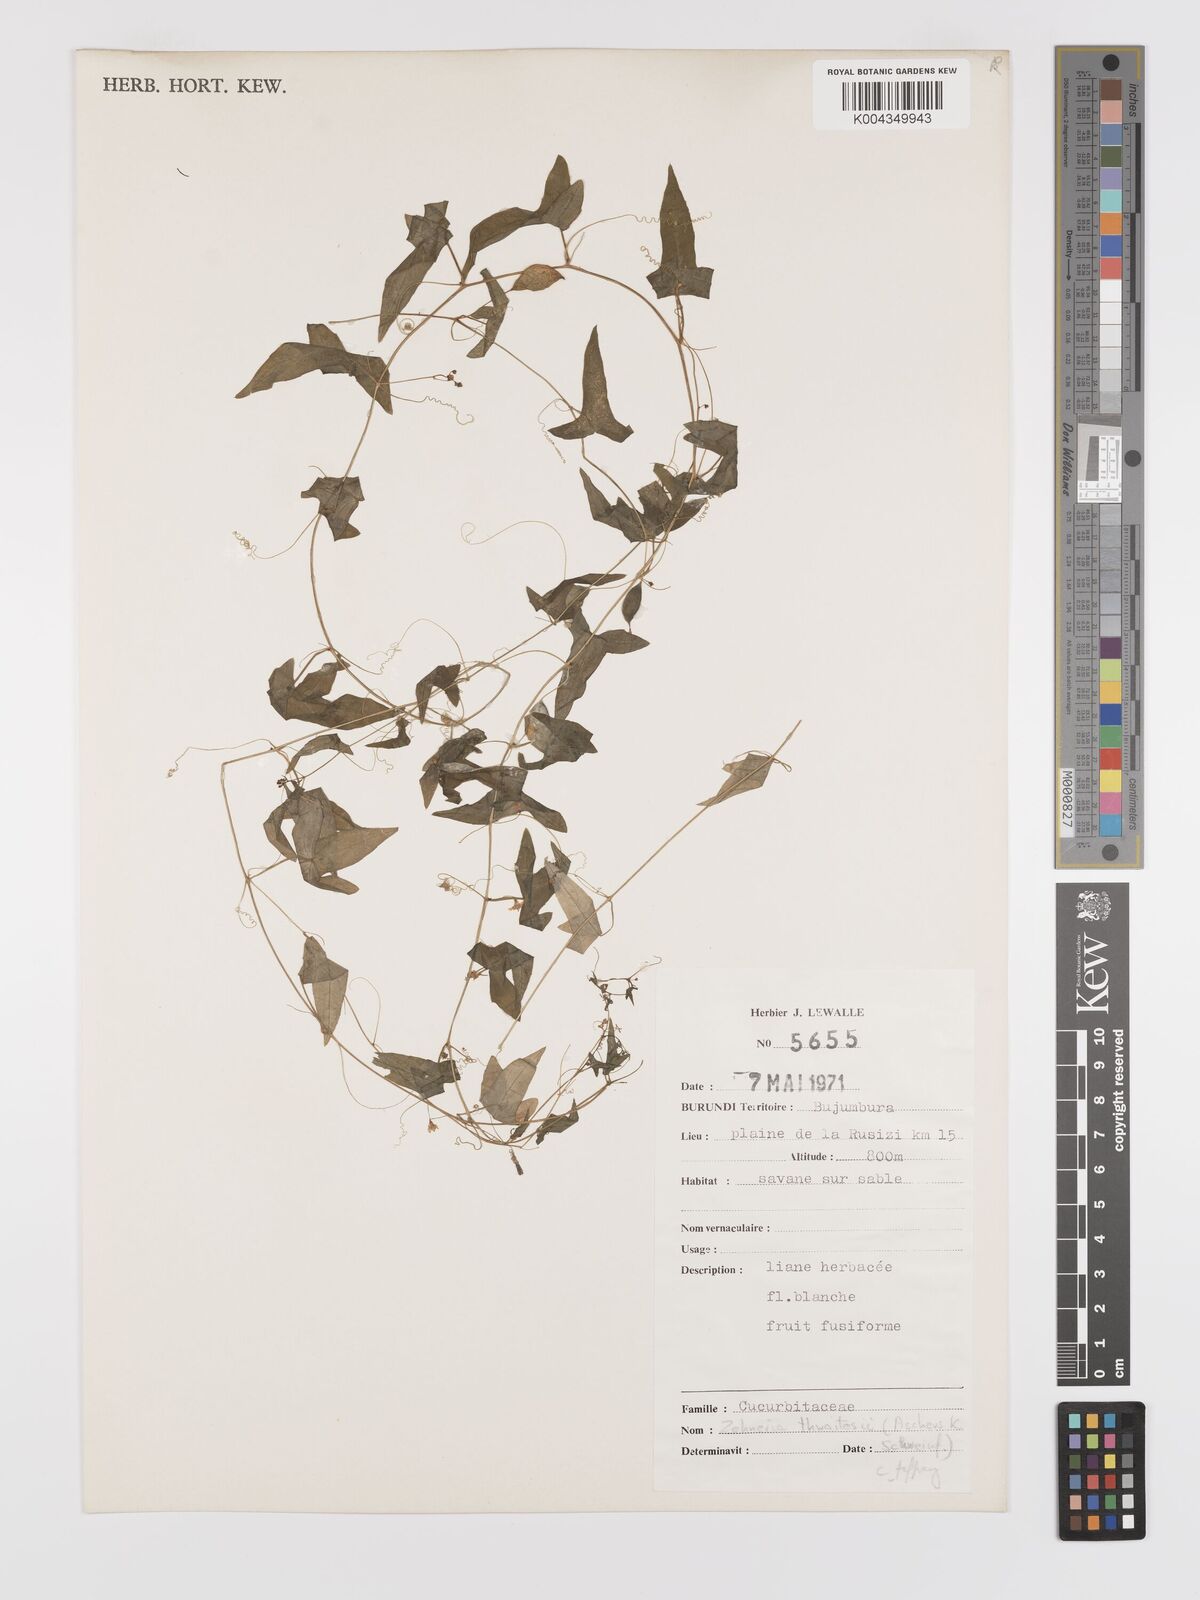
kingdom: Plantae
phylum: Tracheophyta
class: Magnoliopsida
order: Cucurbitales
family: Cucurbitaceae
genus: Zehneria
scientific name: Zehneria thwaitesii
